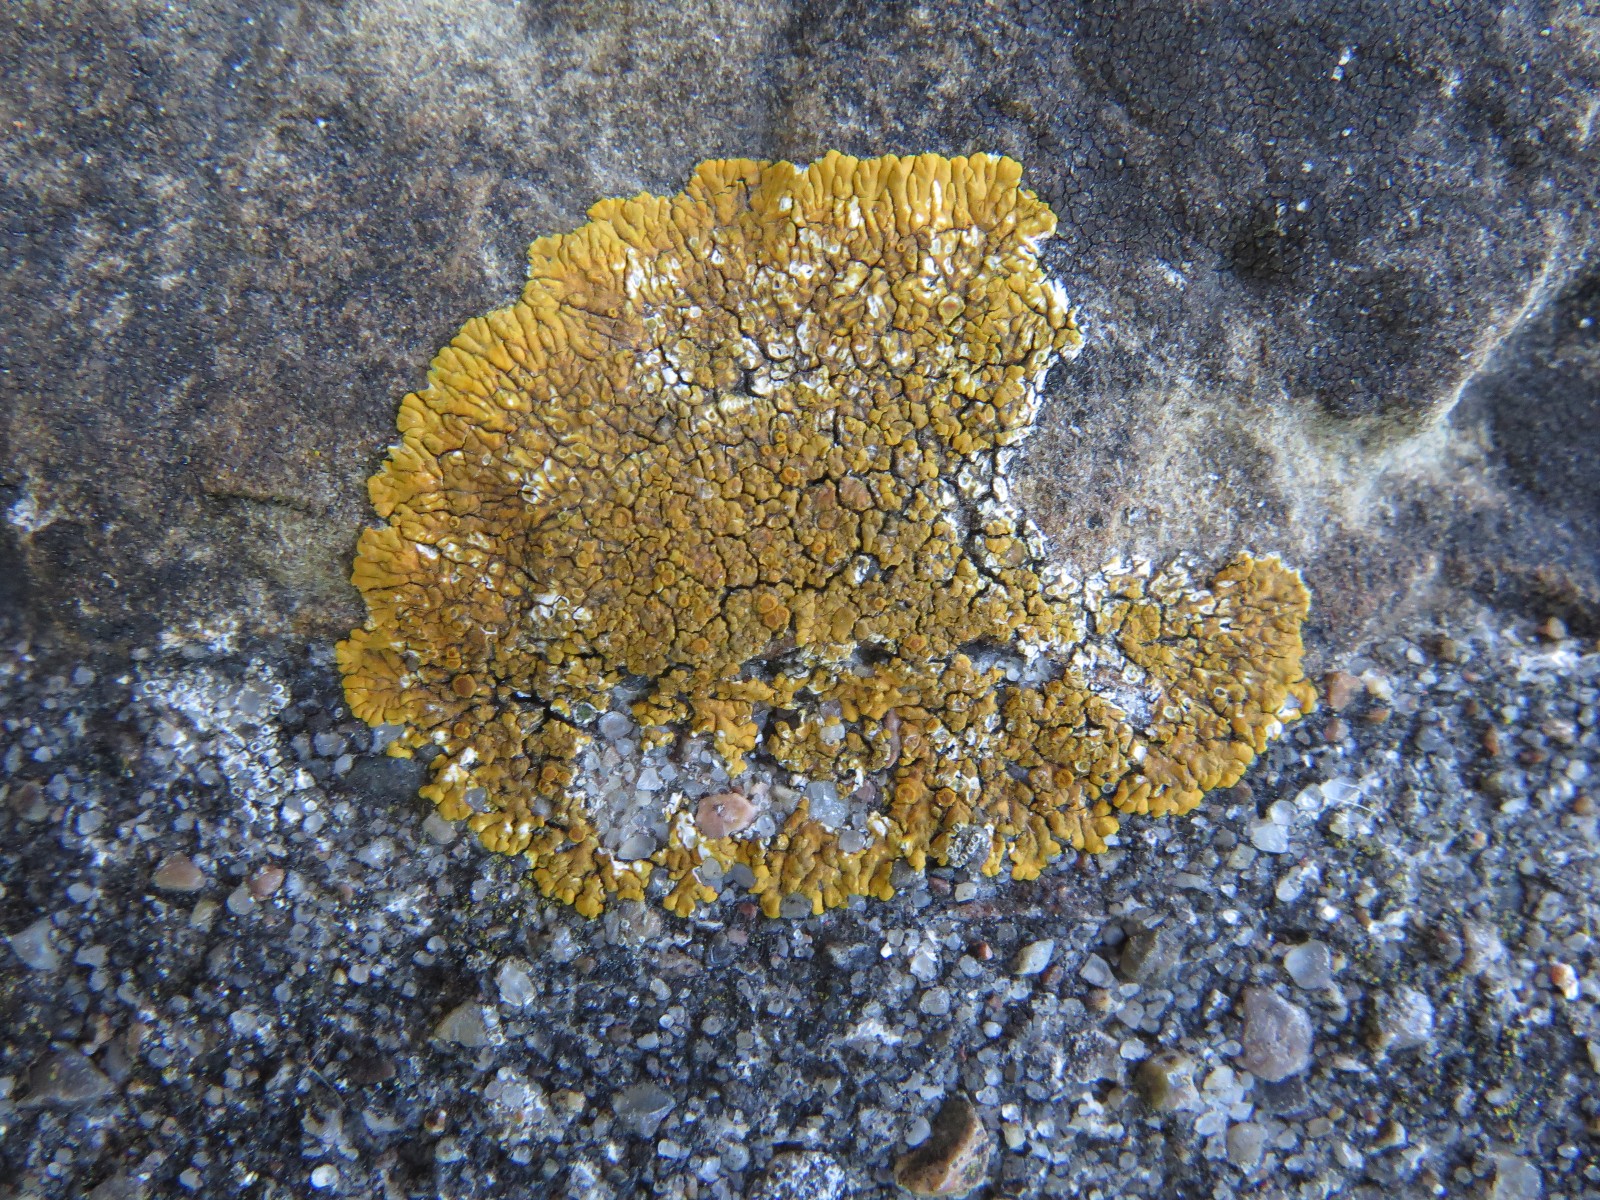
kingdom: Fungi
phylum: Ascomycota
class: Lecanoromycetes
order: Teloschistales
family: Teloschistaceae
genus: Variospora
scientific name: Variospora flavescens
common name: kalk-orangelav
